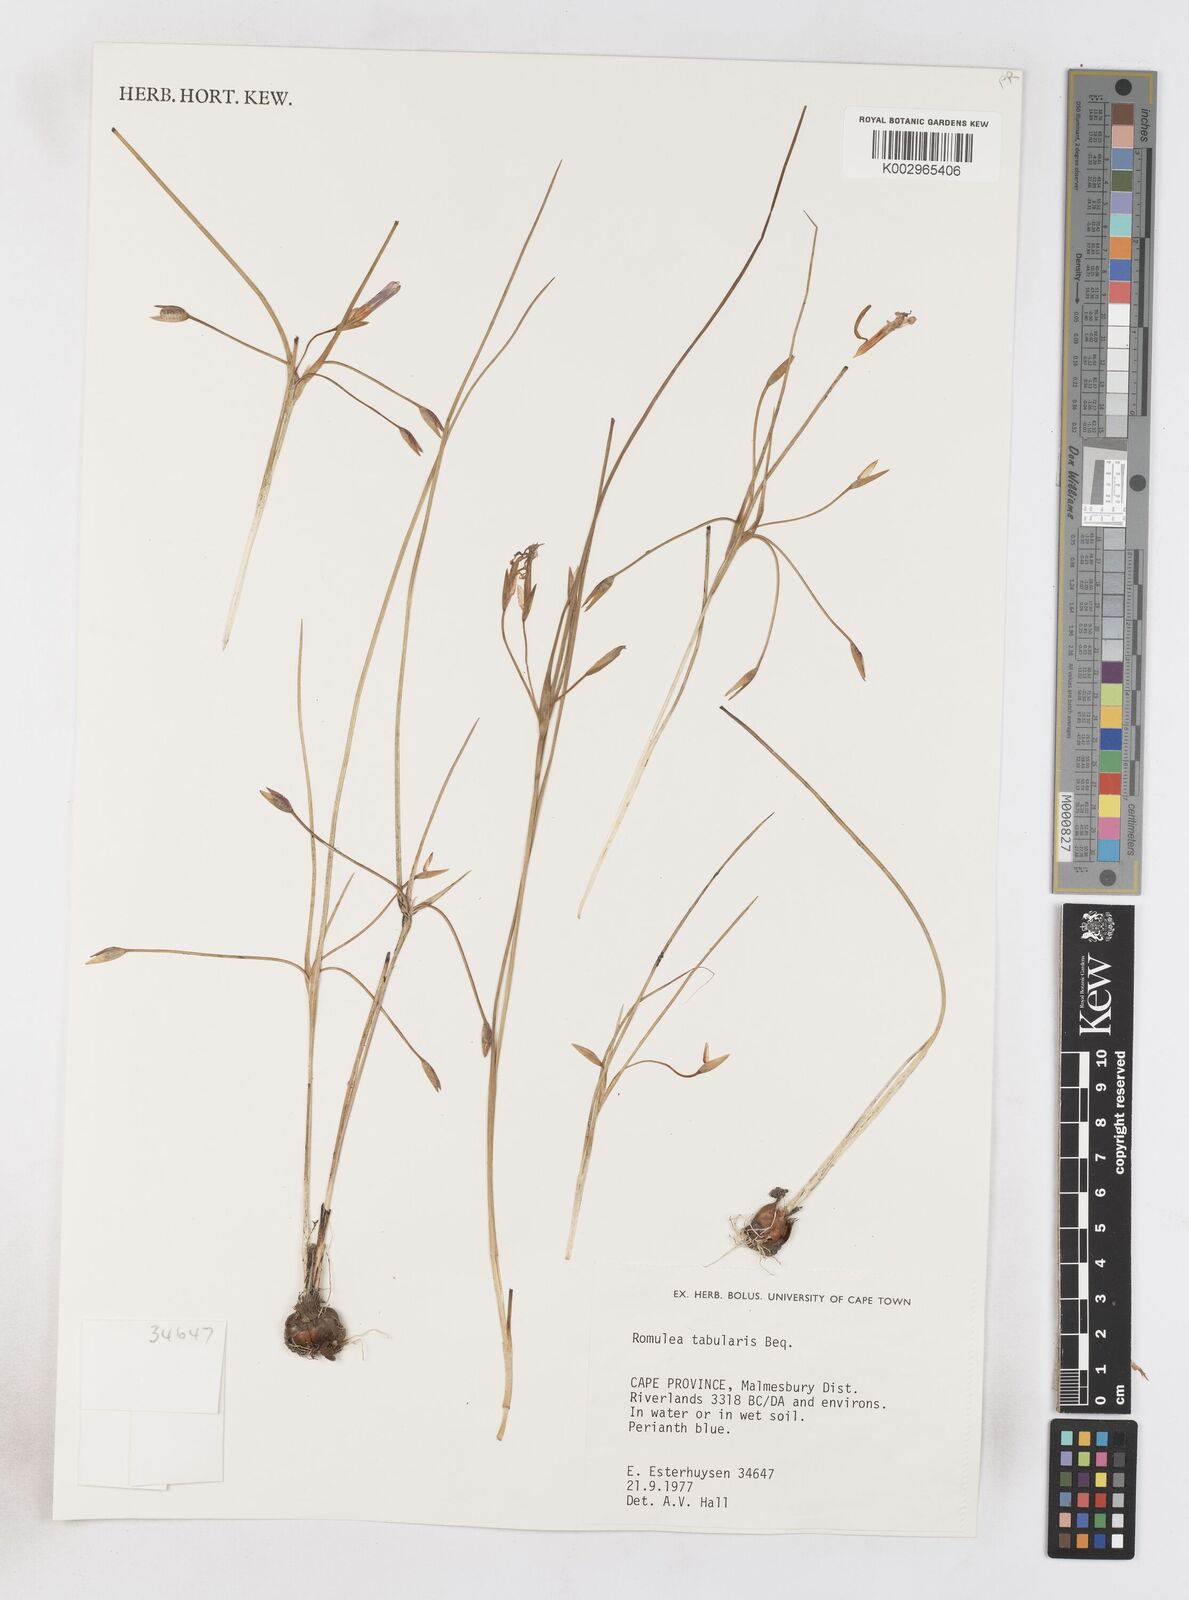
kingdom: Plantae
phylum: Tracheophyta
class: Liliopsida
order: Asparagales
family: Iridaceae
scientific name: Iridaceae
